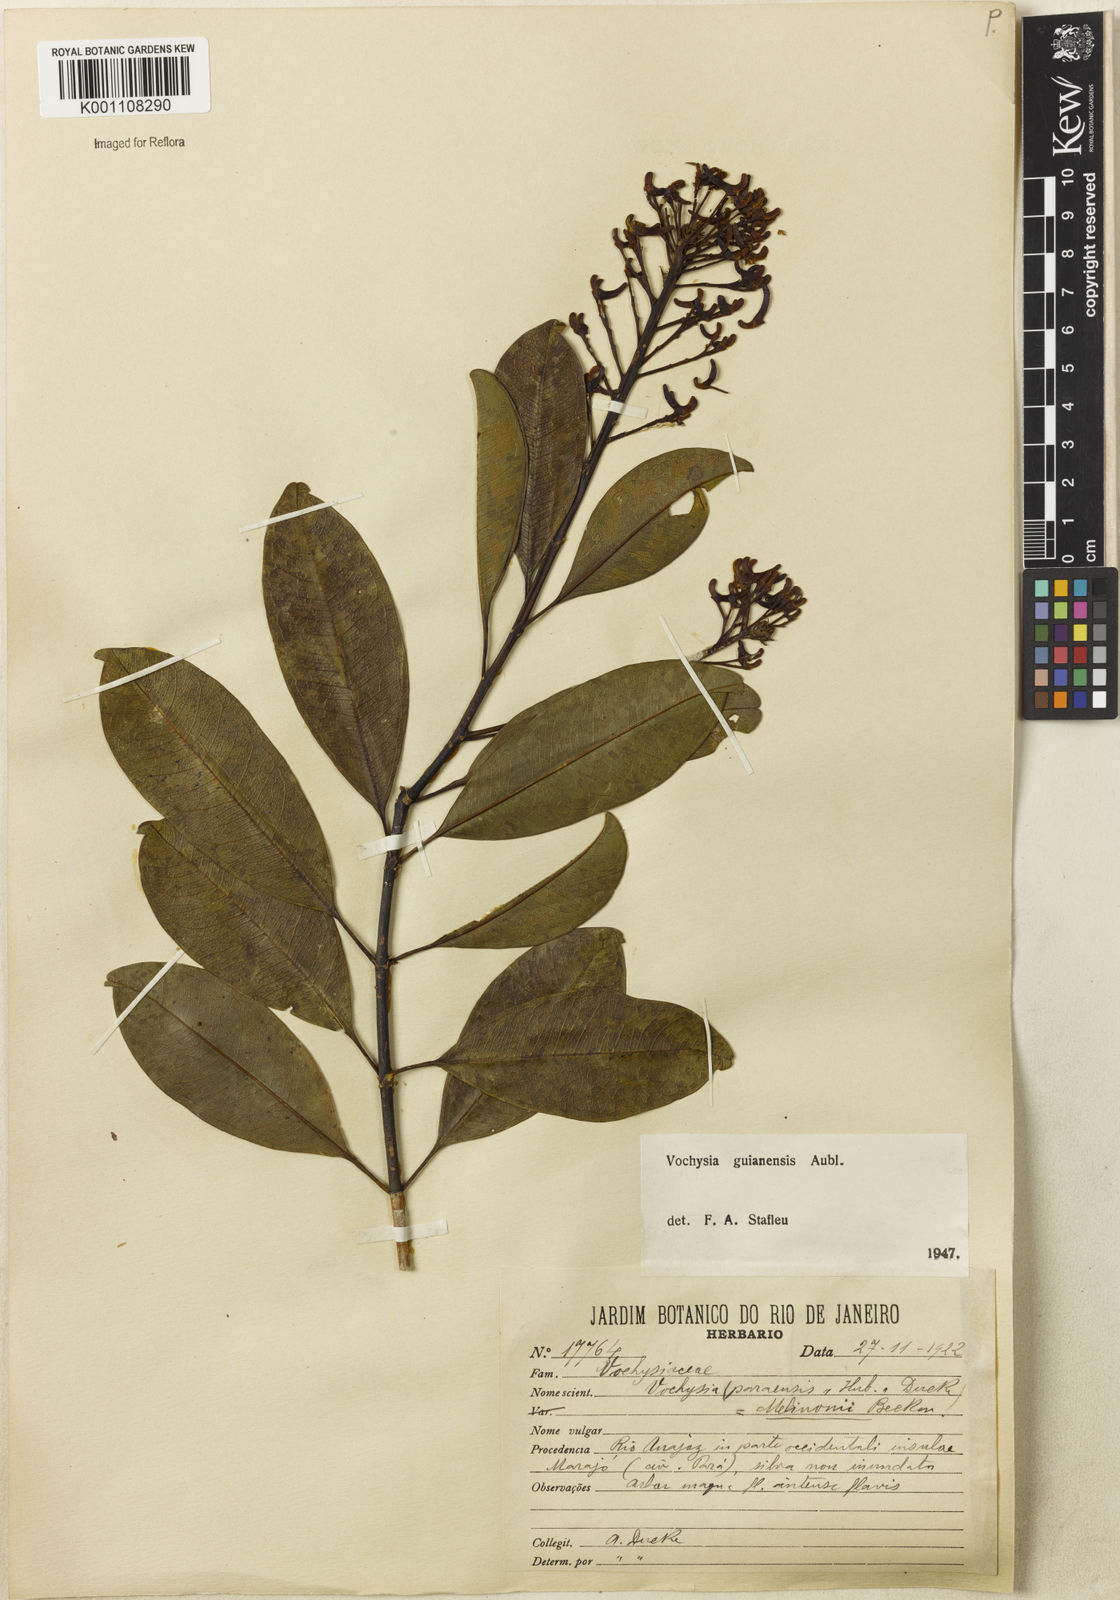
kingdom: Plantae
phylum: Tracheophyta
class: Magnoliopsida
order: Myrtales
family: Vochysiaceae
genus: Vochysia
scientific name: Vochysia
